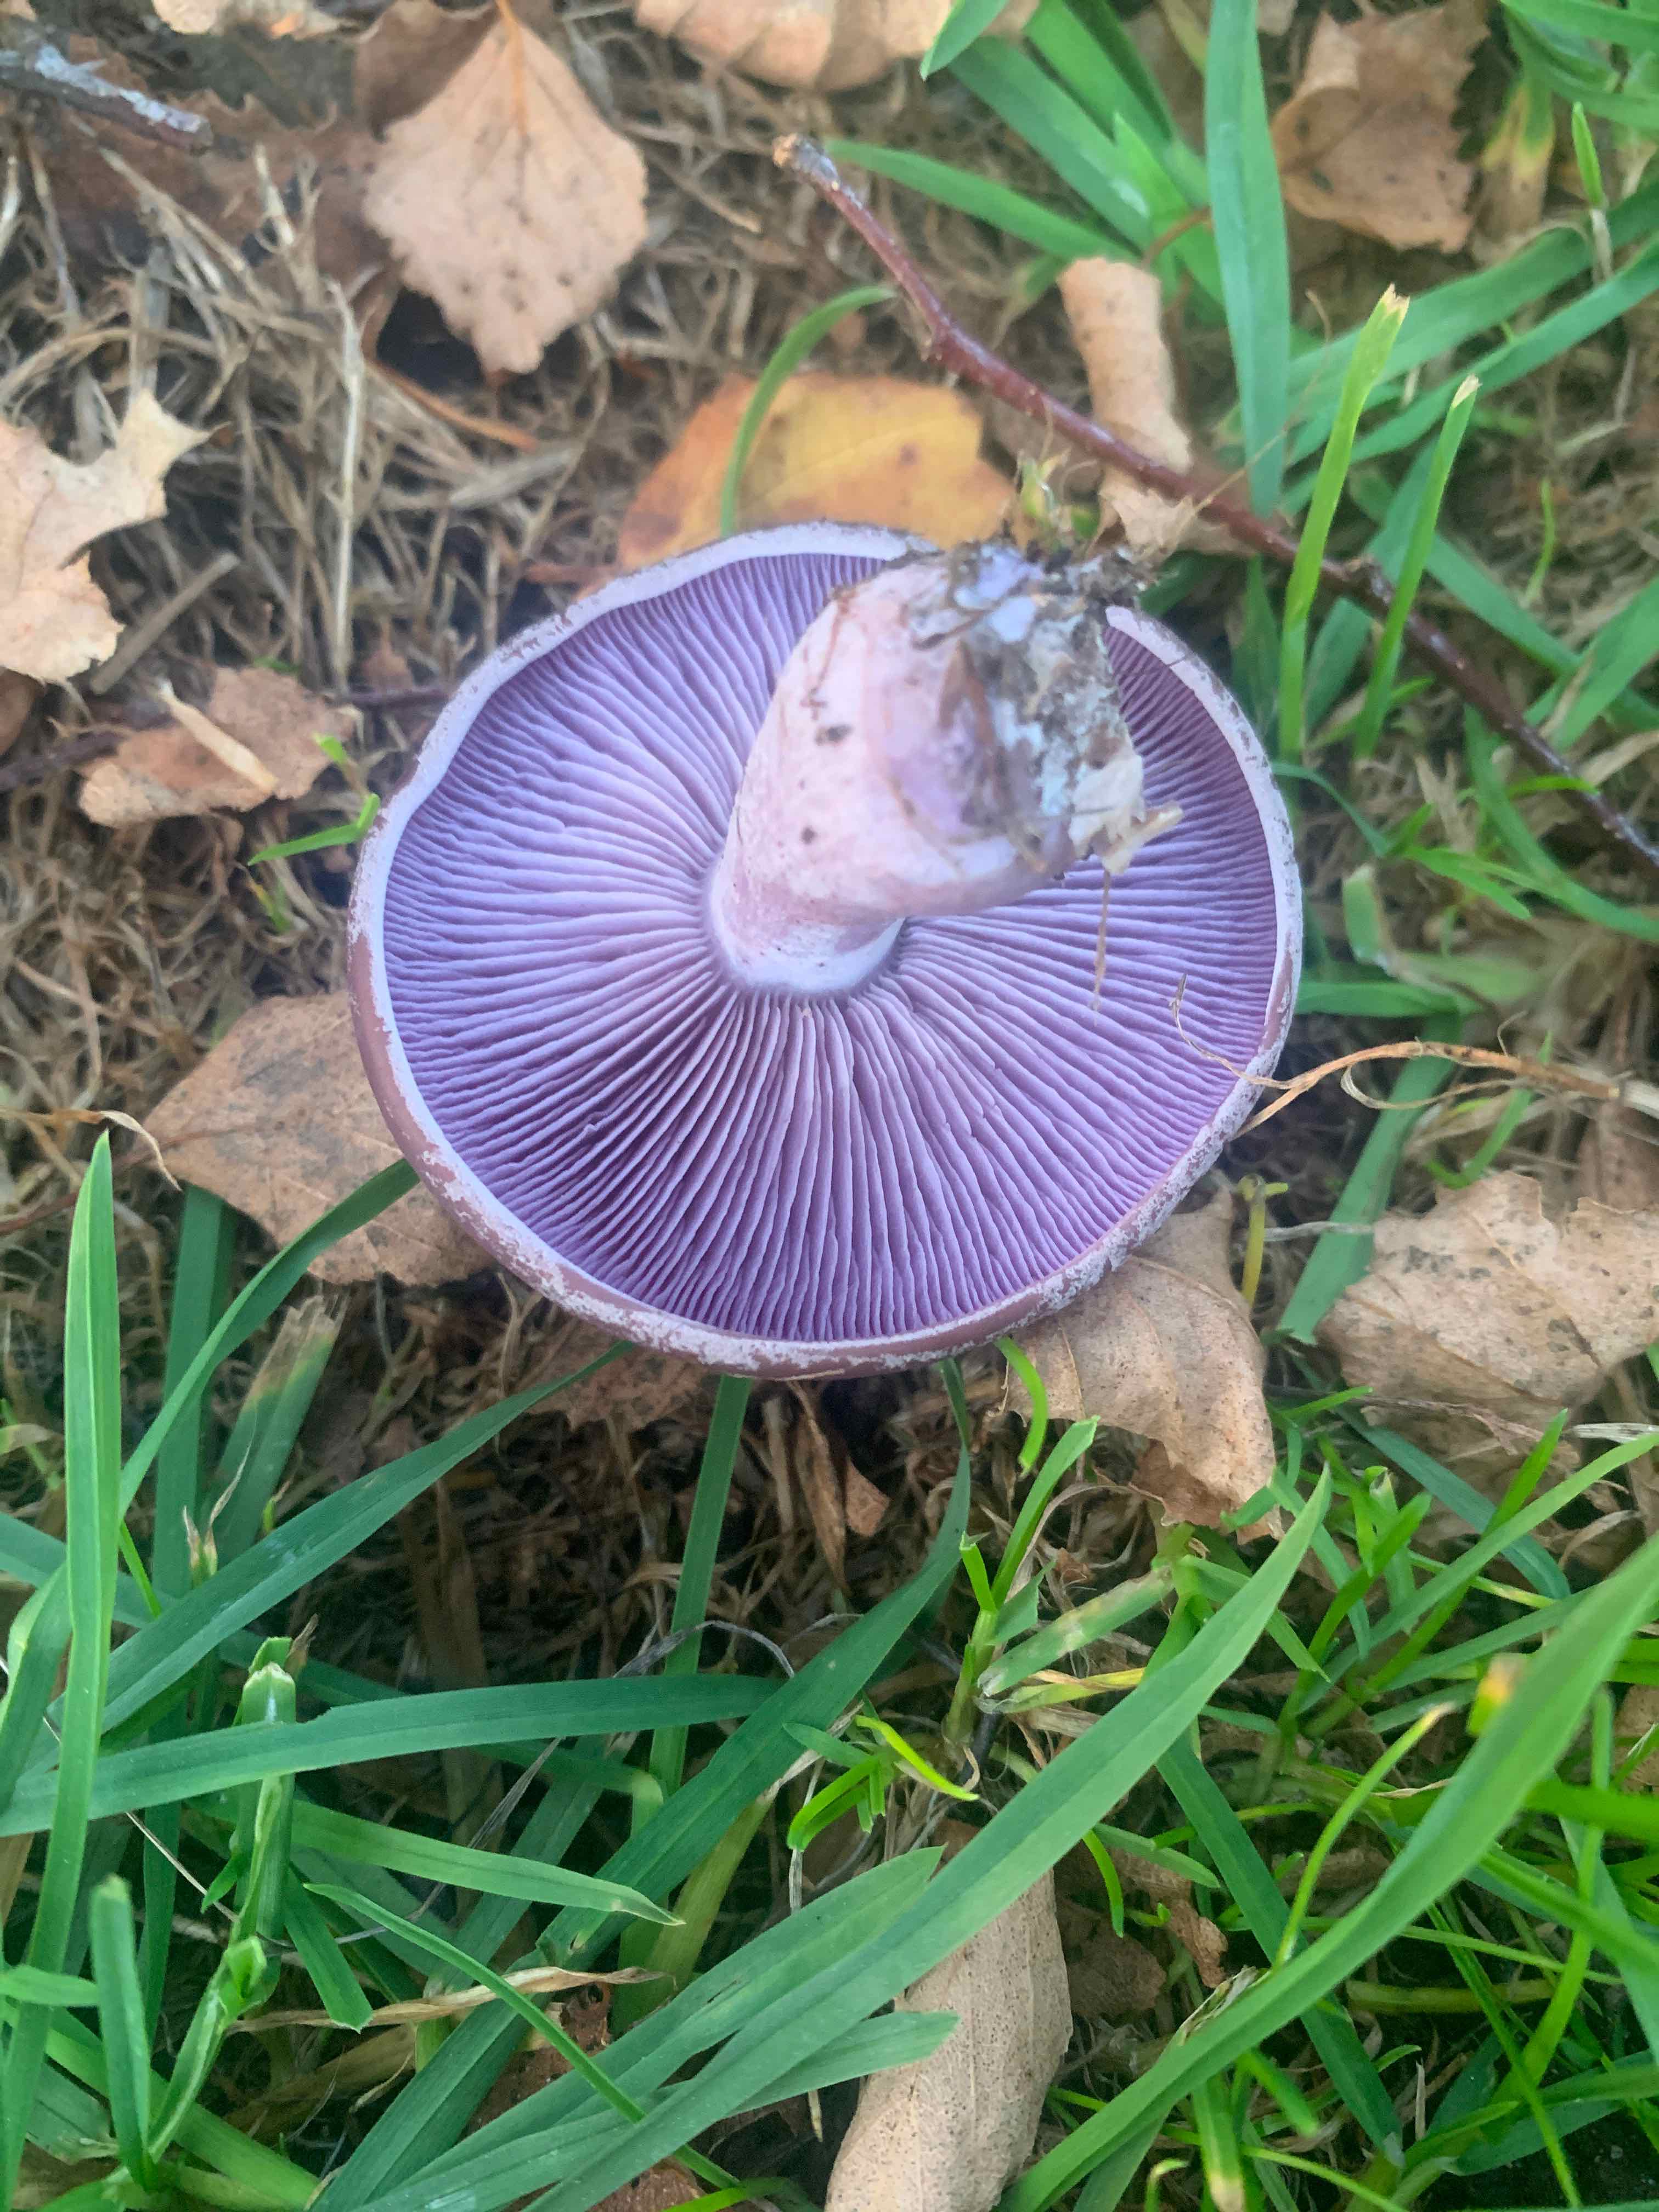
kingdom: Fungi
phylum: Basidiomycota
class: Agaricomycetes
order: Agaricales
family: Tricholomataceae
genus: Lepista
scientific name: Lepista nuda
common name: violet hekseringshat
